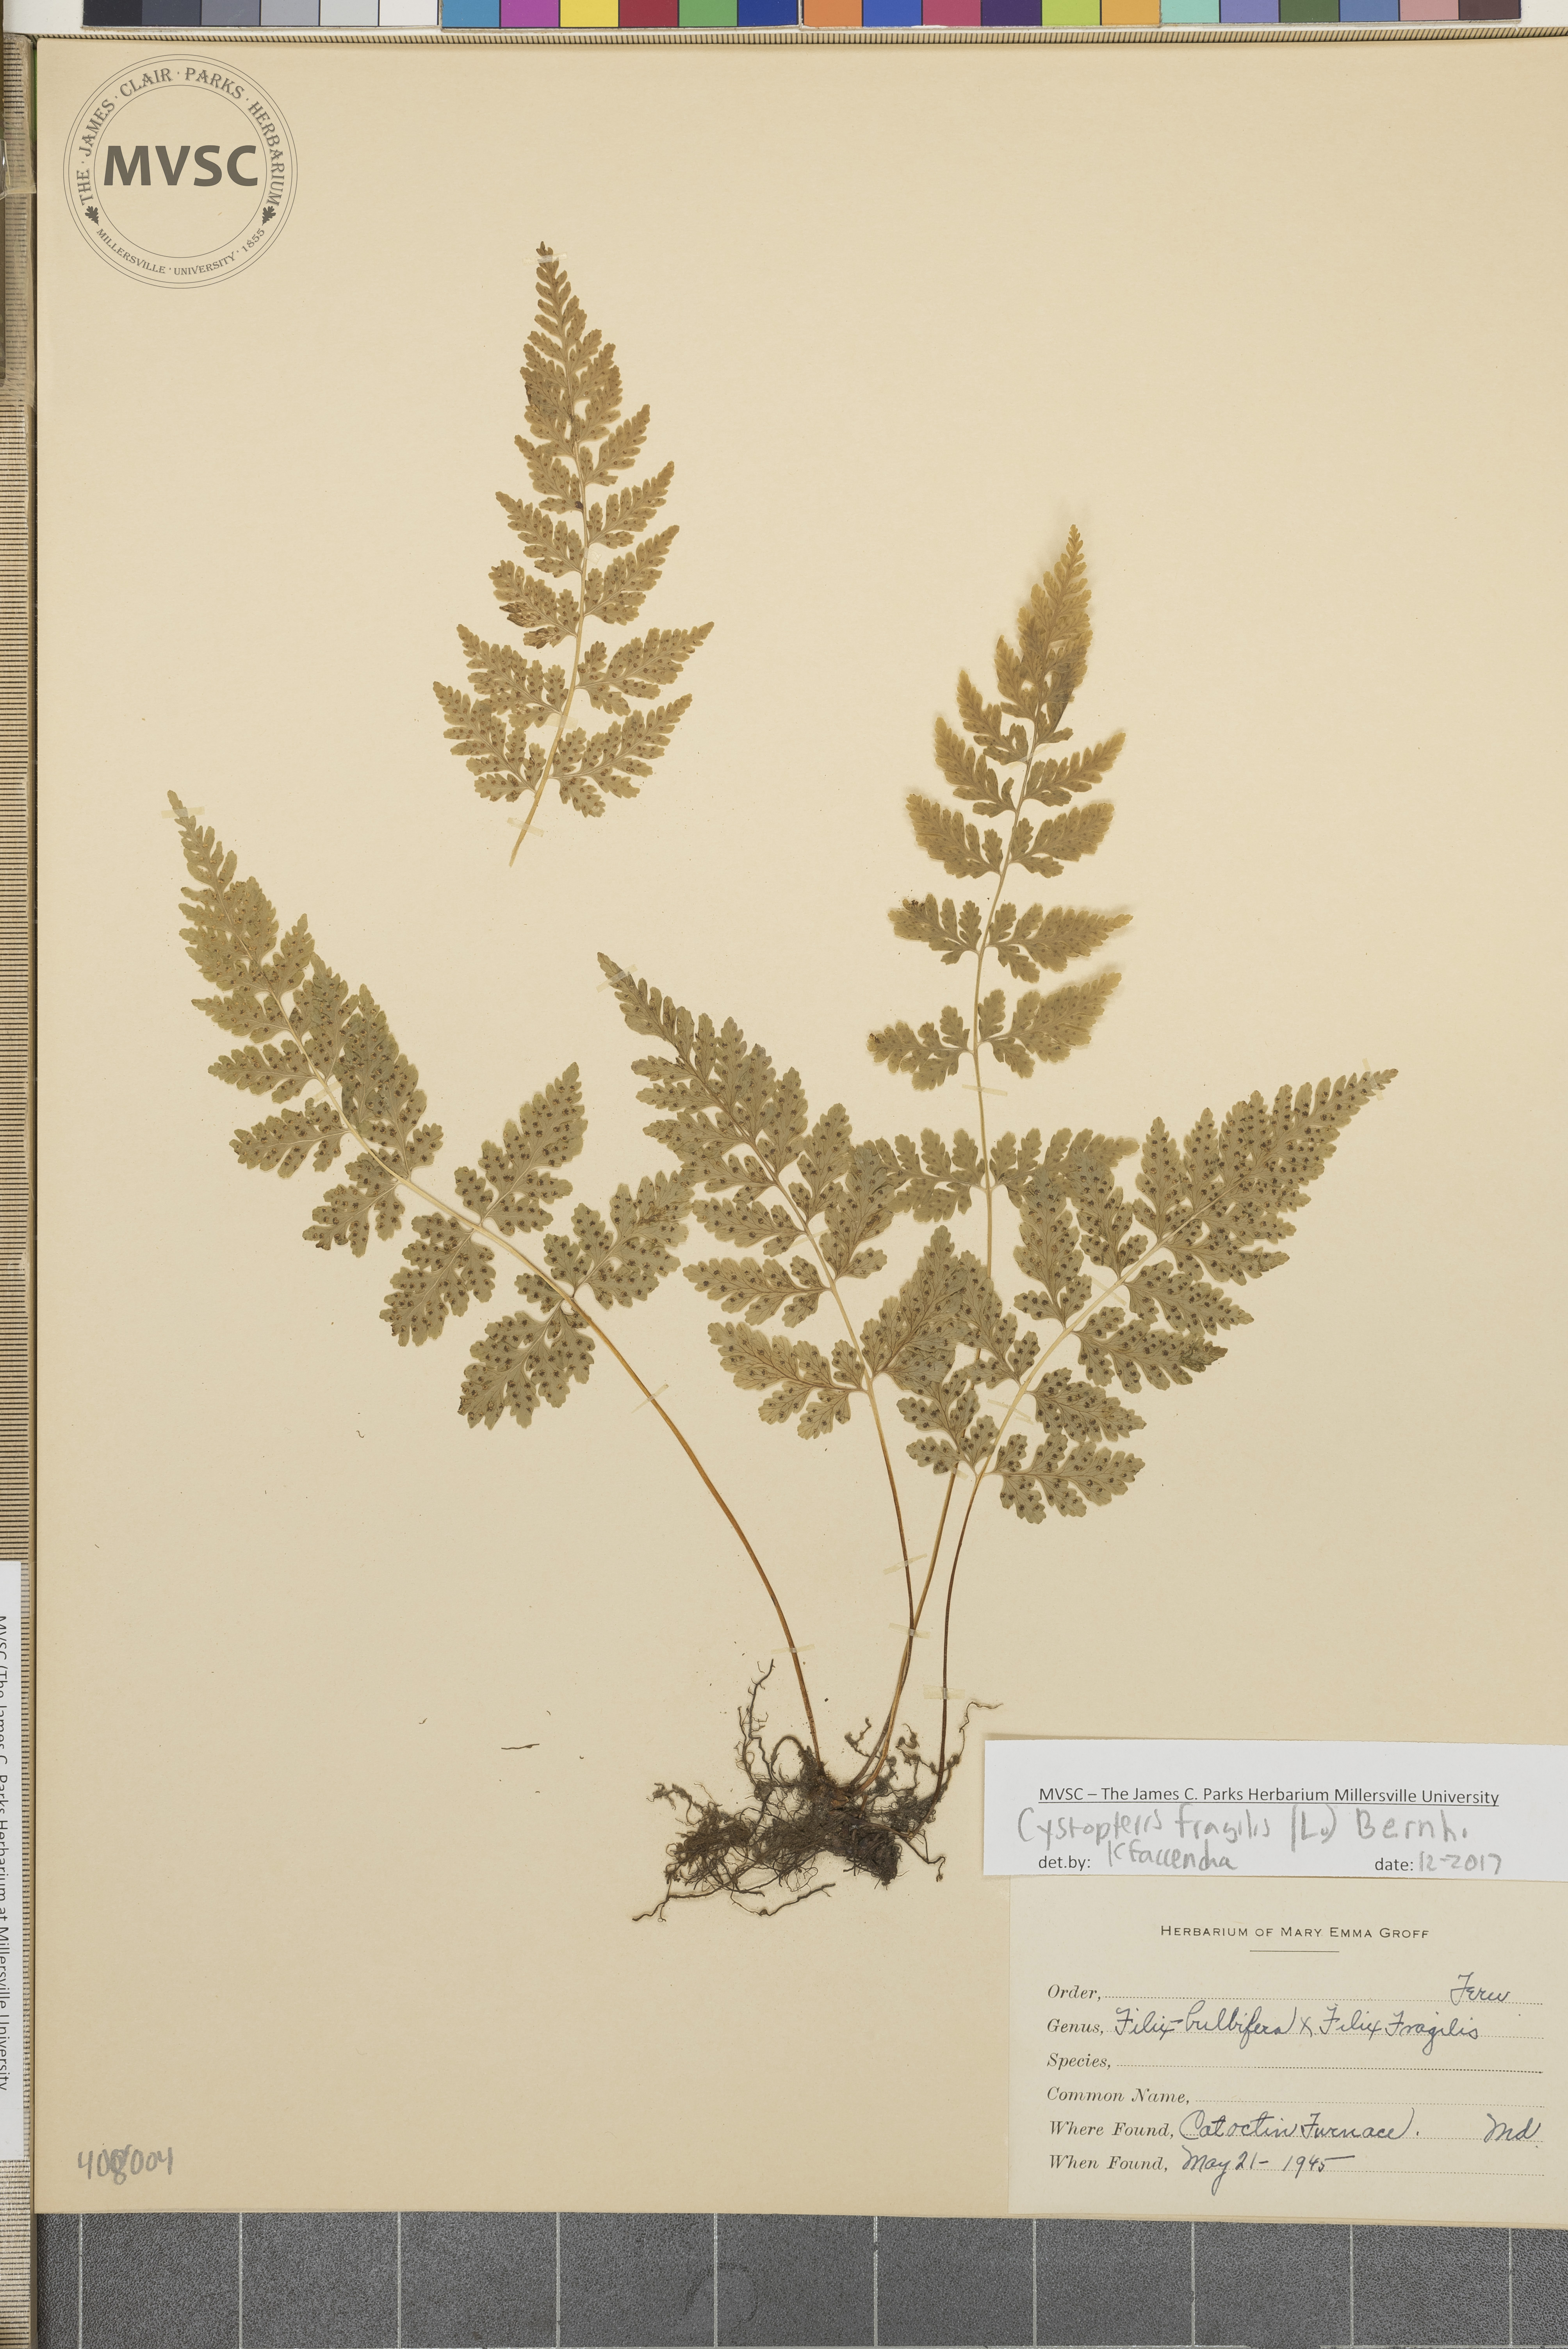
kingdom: Plantae
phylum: Tracheophyta
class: Polypodiopsida
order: Polypodiales
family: Cystopteridaceae
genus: Cystopteris
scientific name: Cystopteris fragilis
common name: Brittle bladder fern
